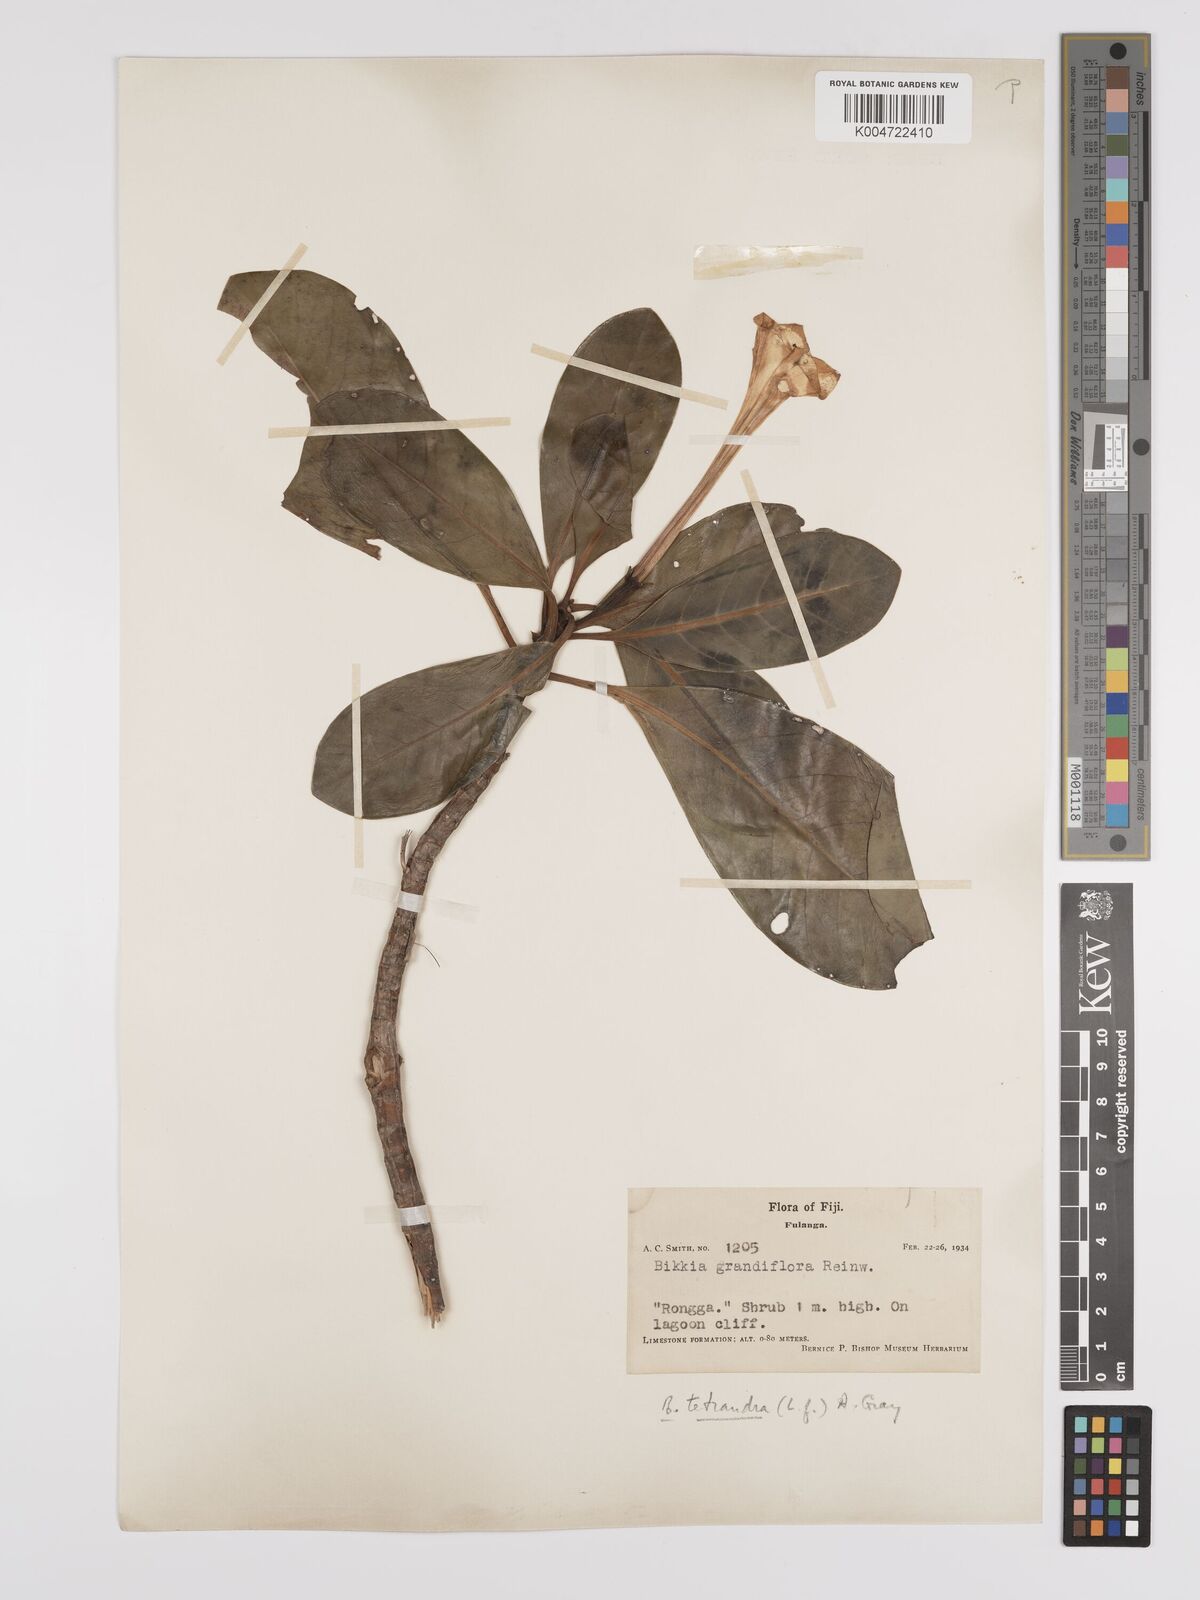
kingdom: Plantae
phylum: Tracheophyta
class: Magnoliopsida
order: Gentianales
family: Rubiaceae
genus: Bikkia
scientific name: Bikkia
